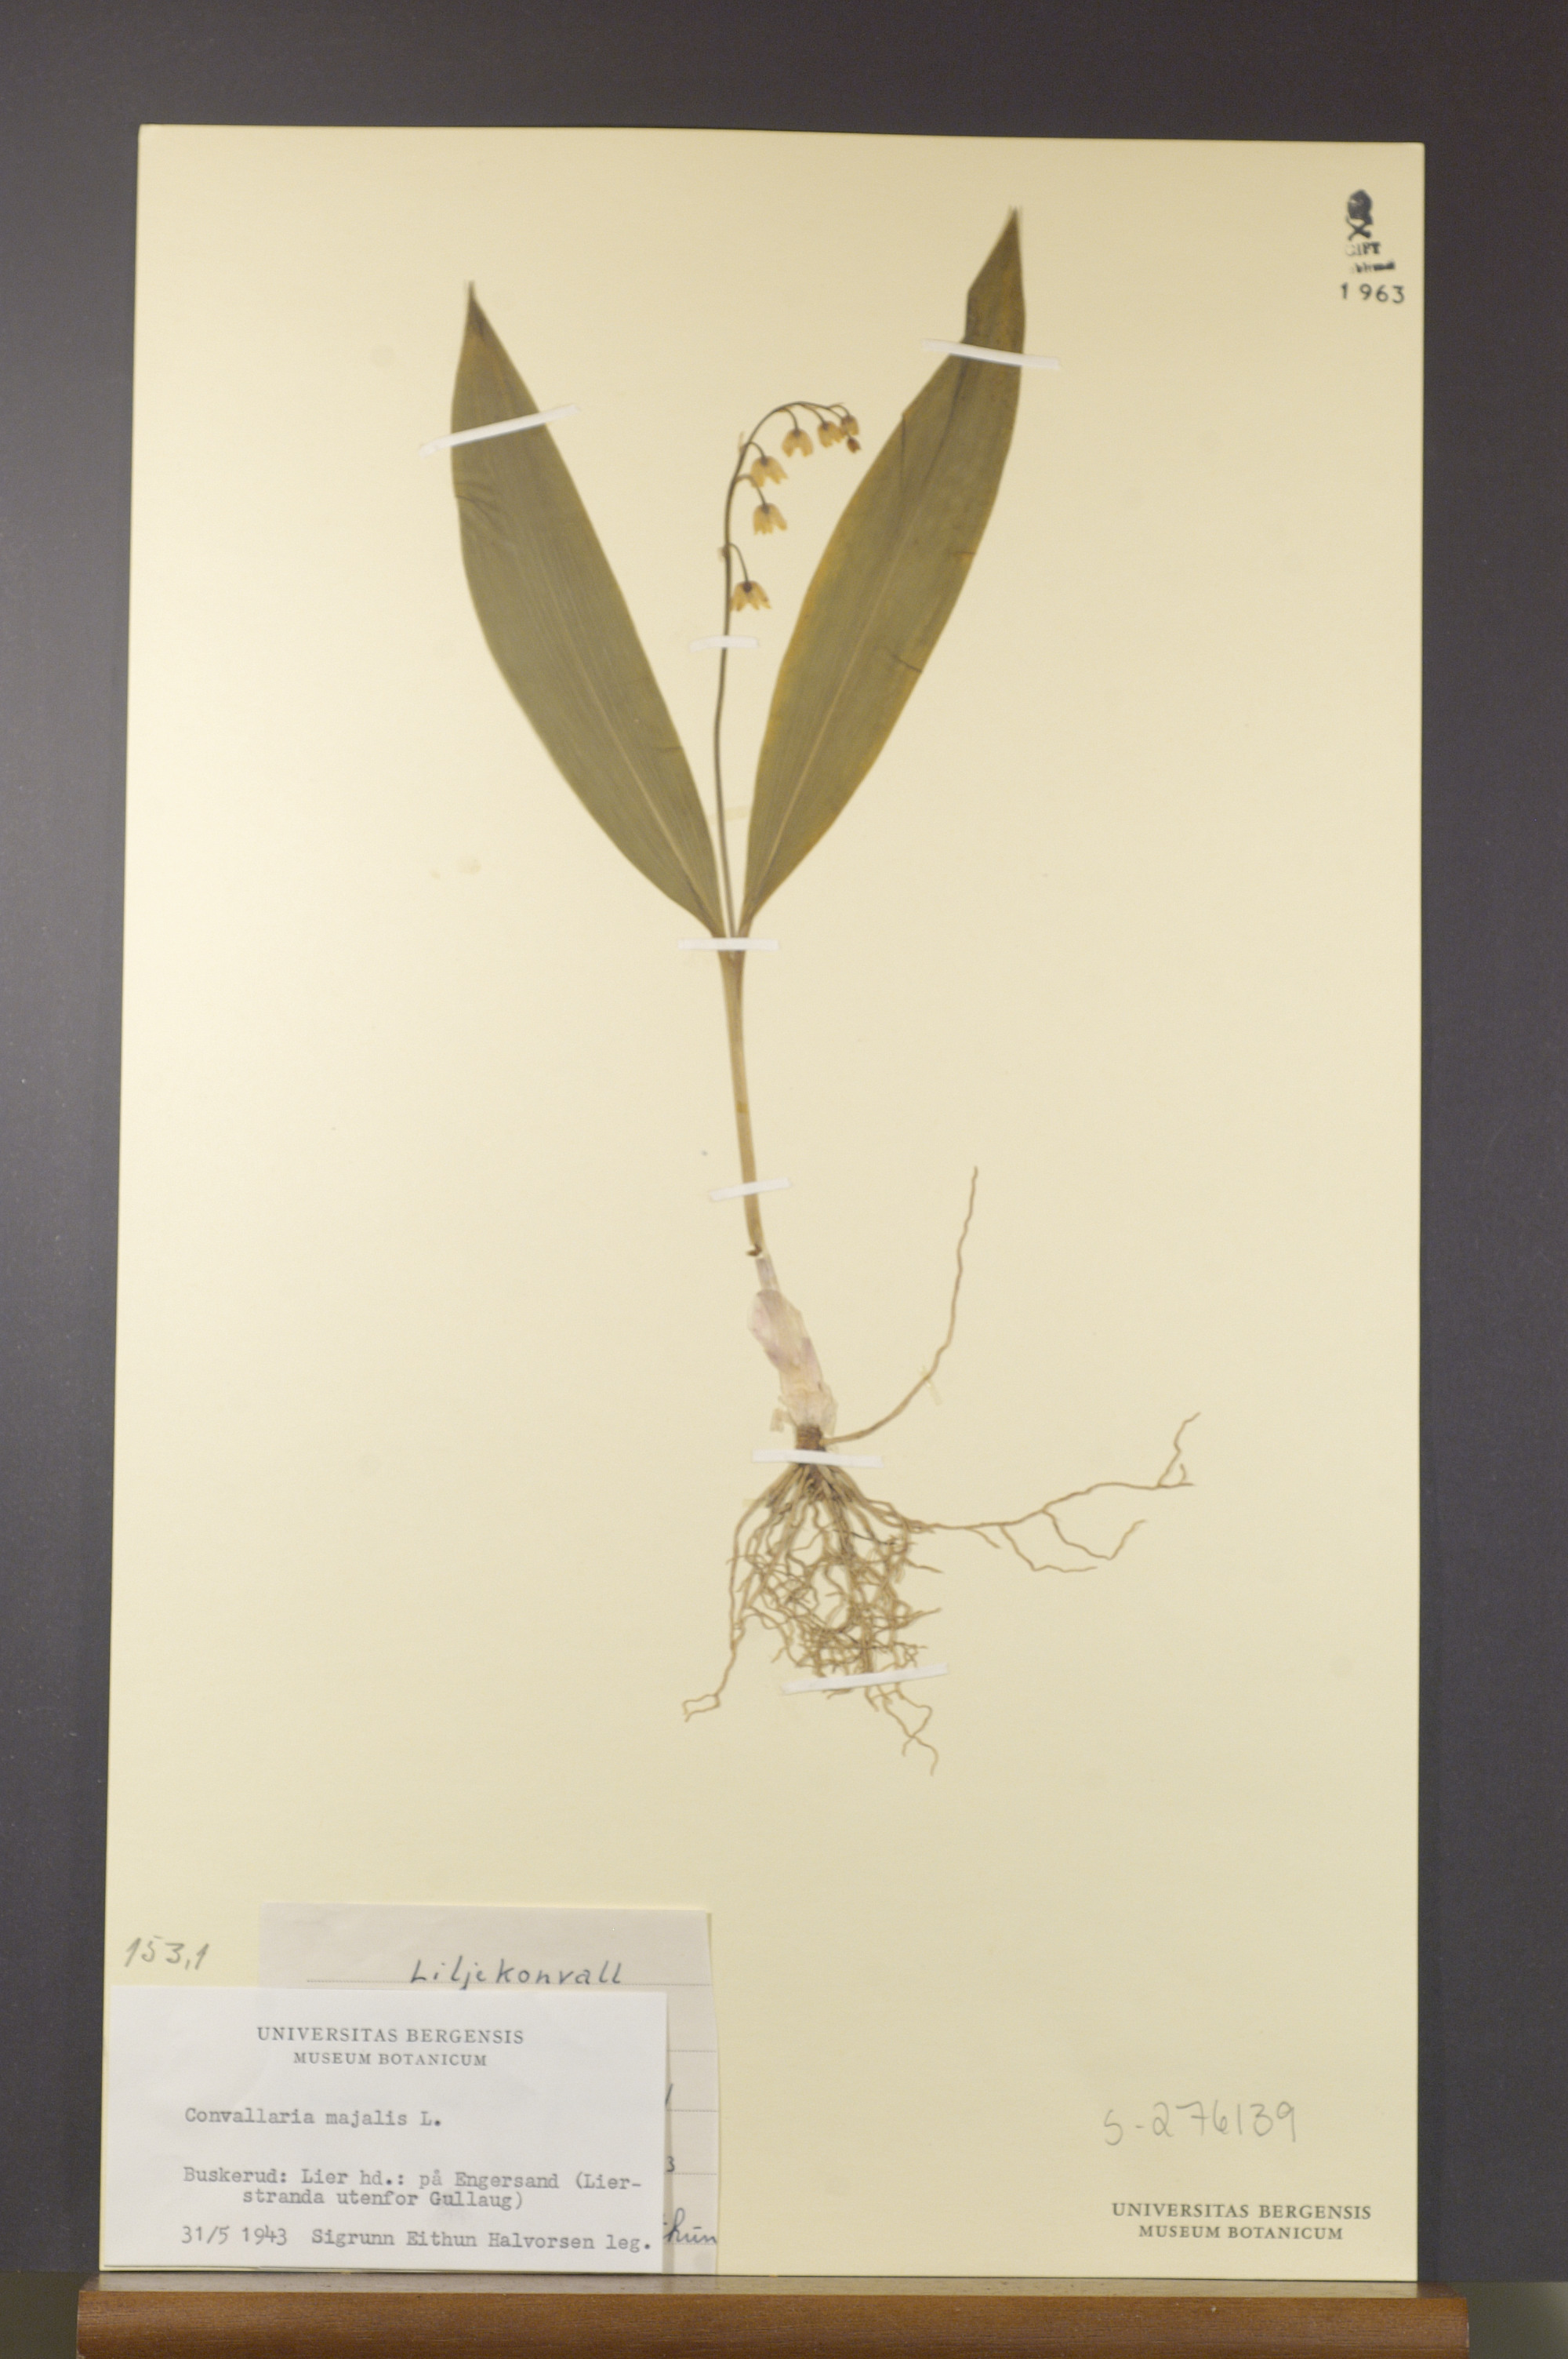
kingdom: Plantae
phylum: Tracheophyta
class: Liliopsida
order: Asparagales
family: Asparagaceae
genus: Convallaria
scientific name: Convallaria majalis
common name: Lily-of-the-valley
